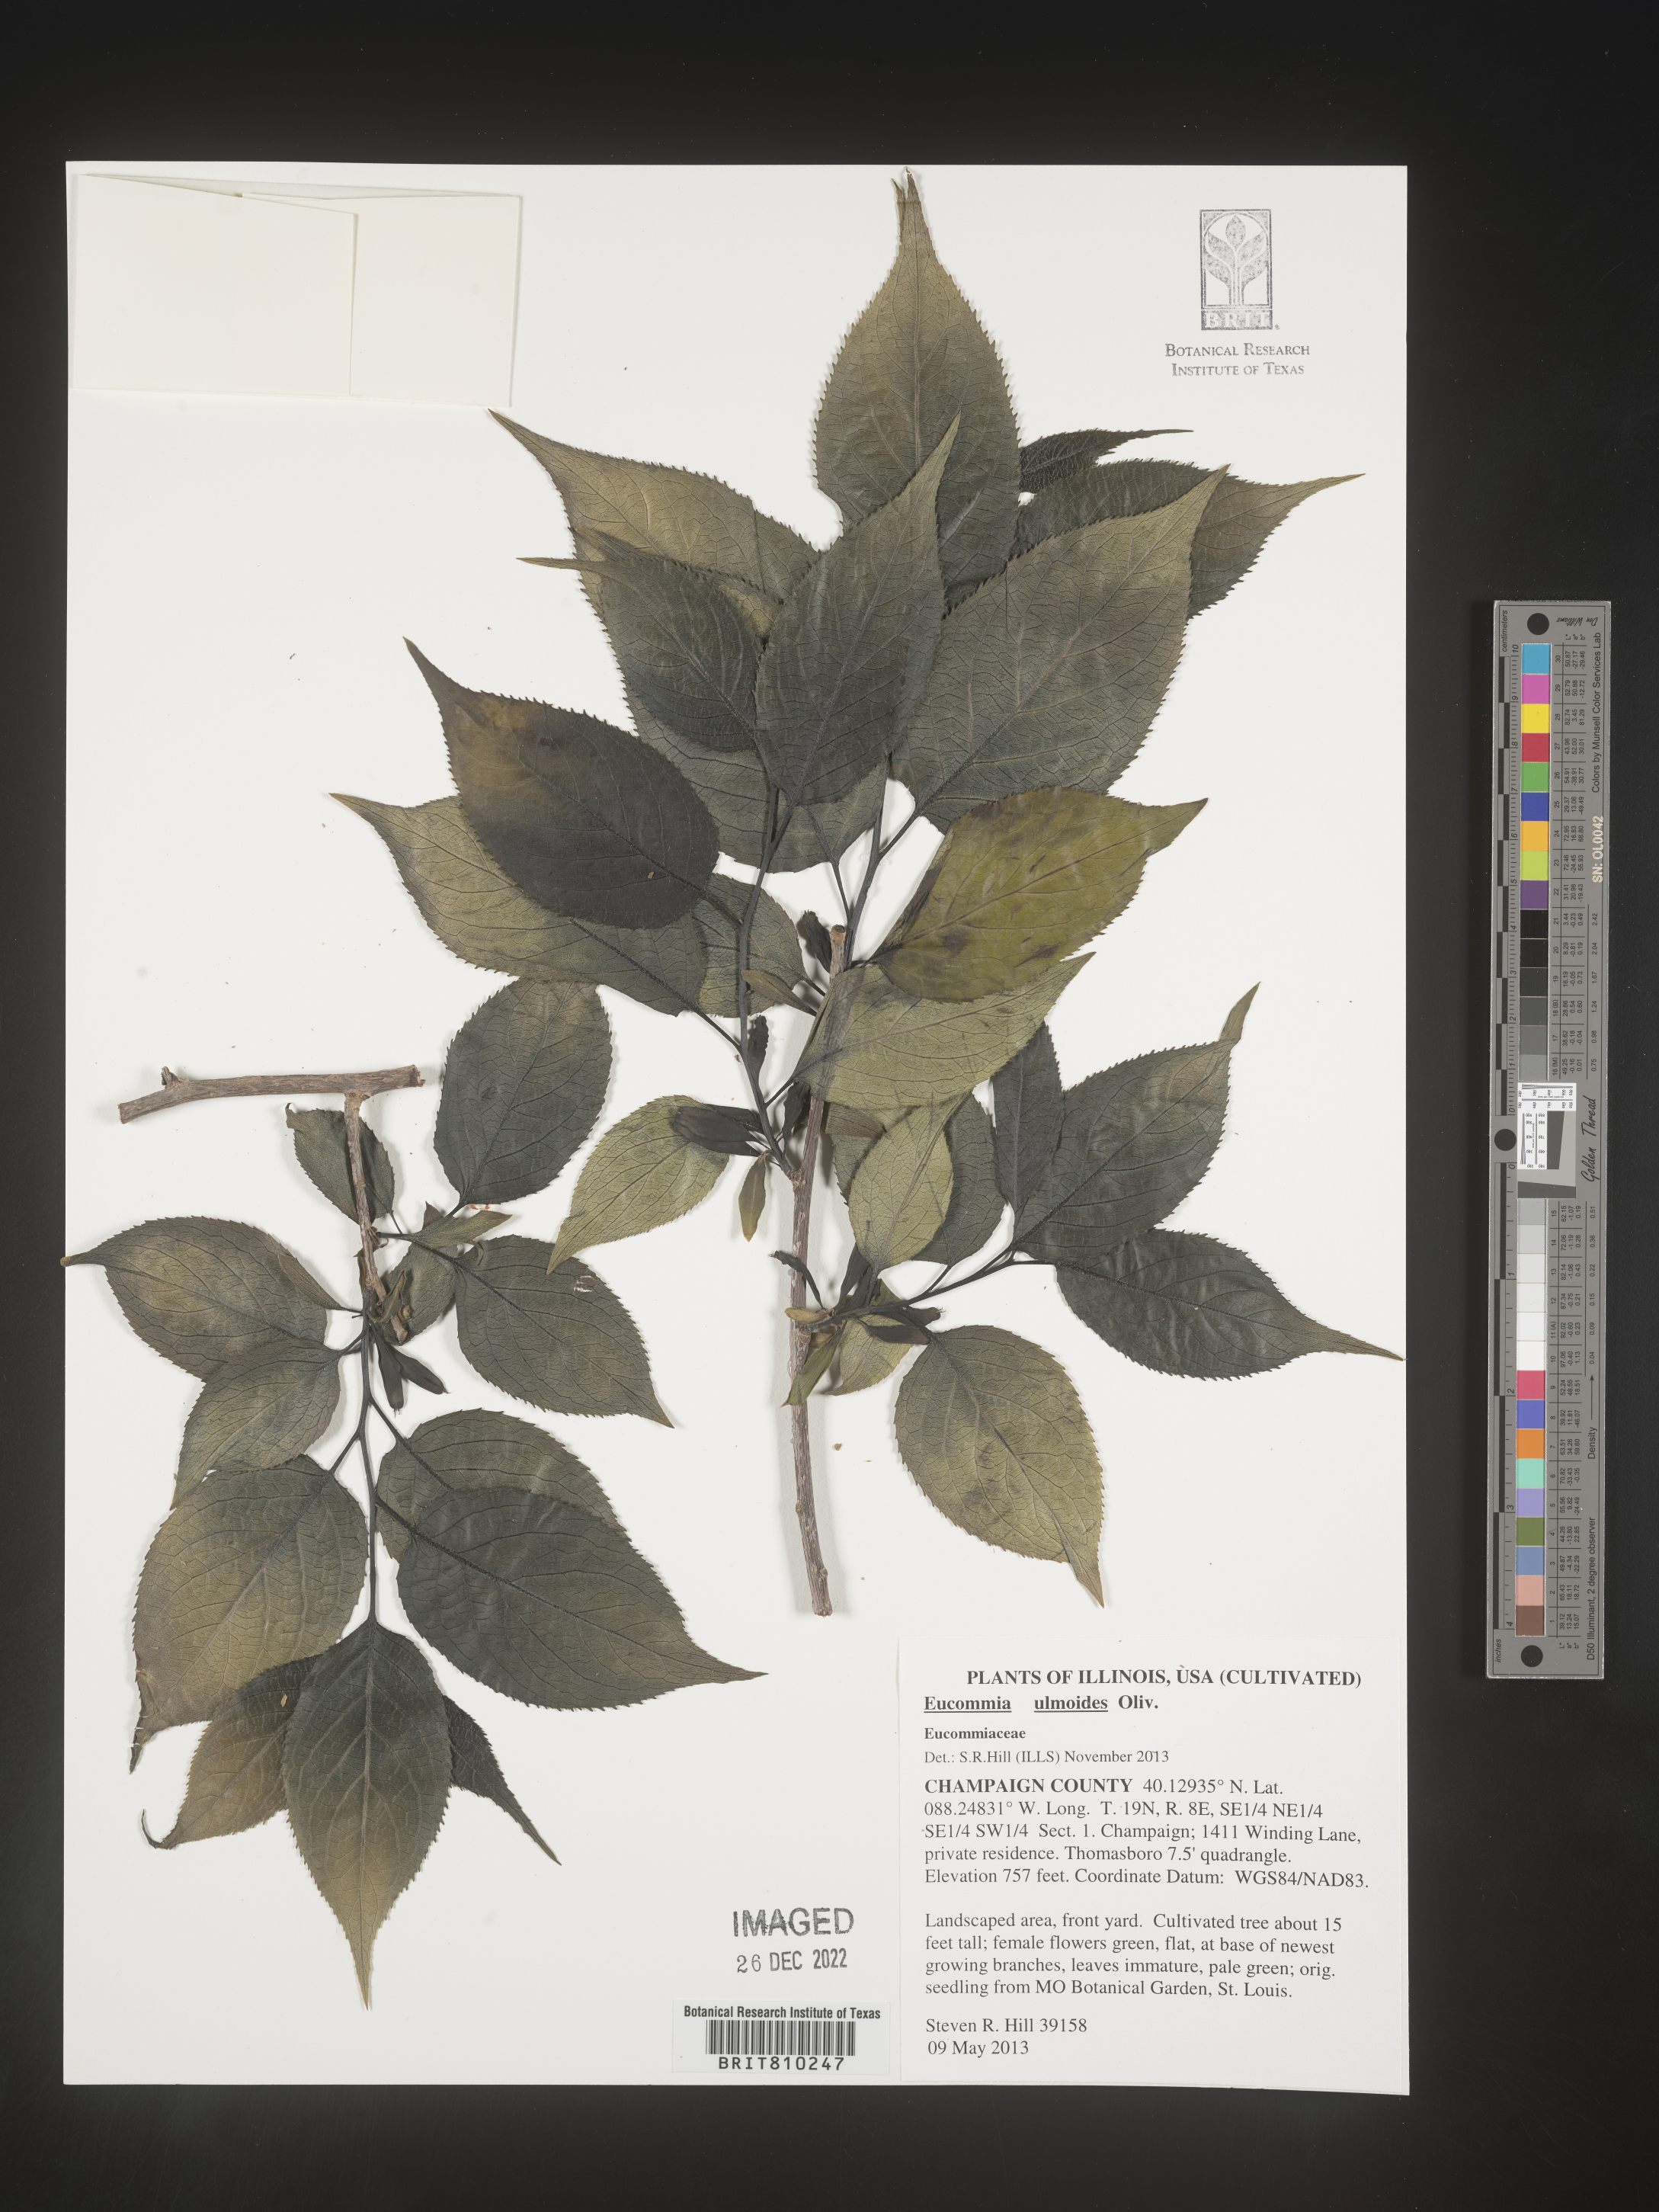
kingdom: Plantae
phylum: Tracheophyta
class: Magnoliopsida
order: Garryales
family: Eucommiaceae
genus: Eucommia
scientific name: Eucommia
